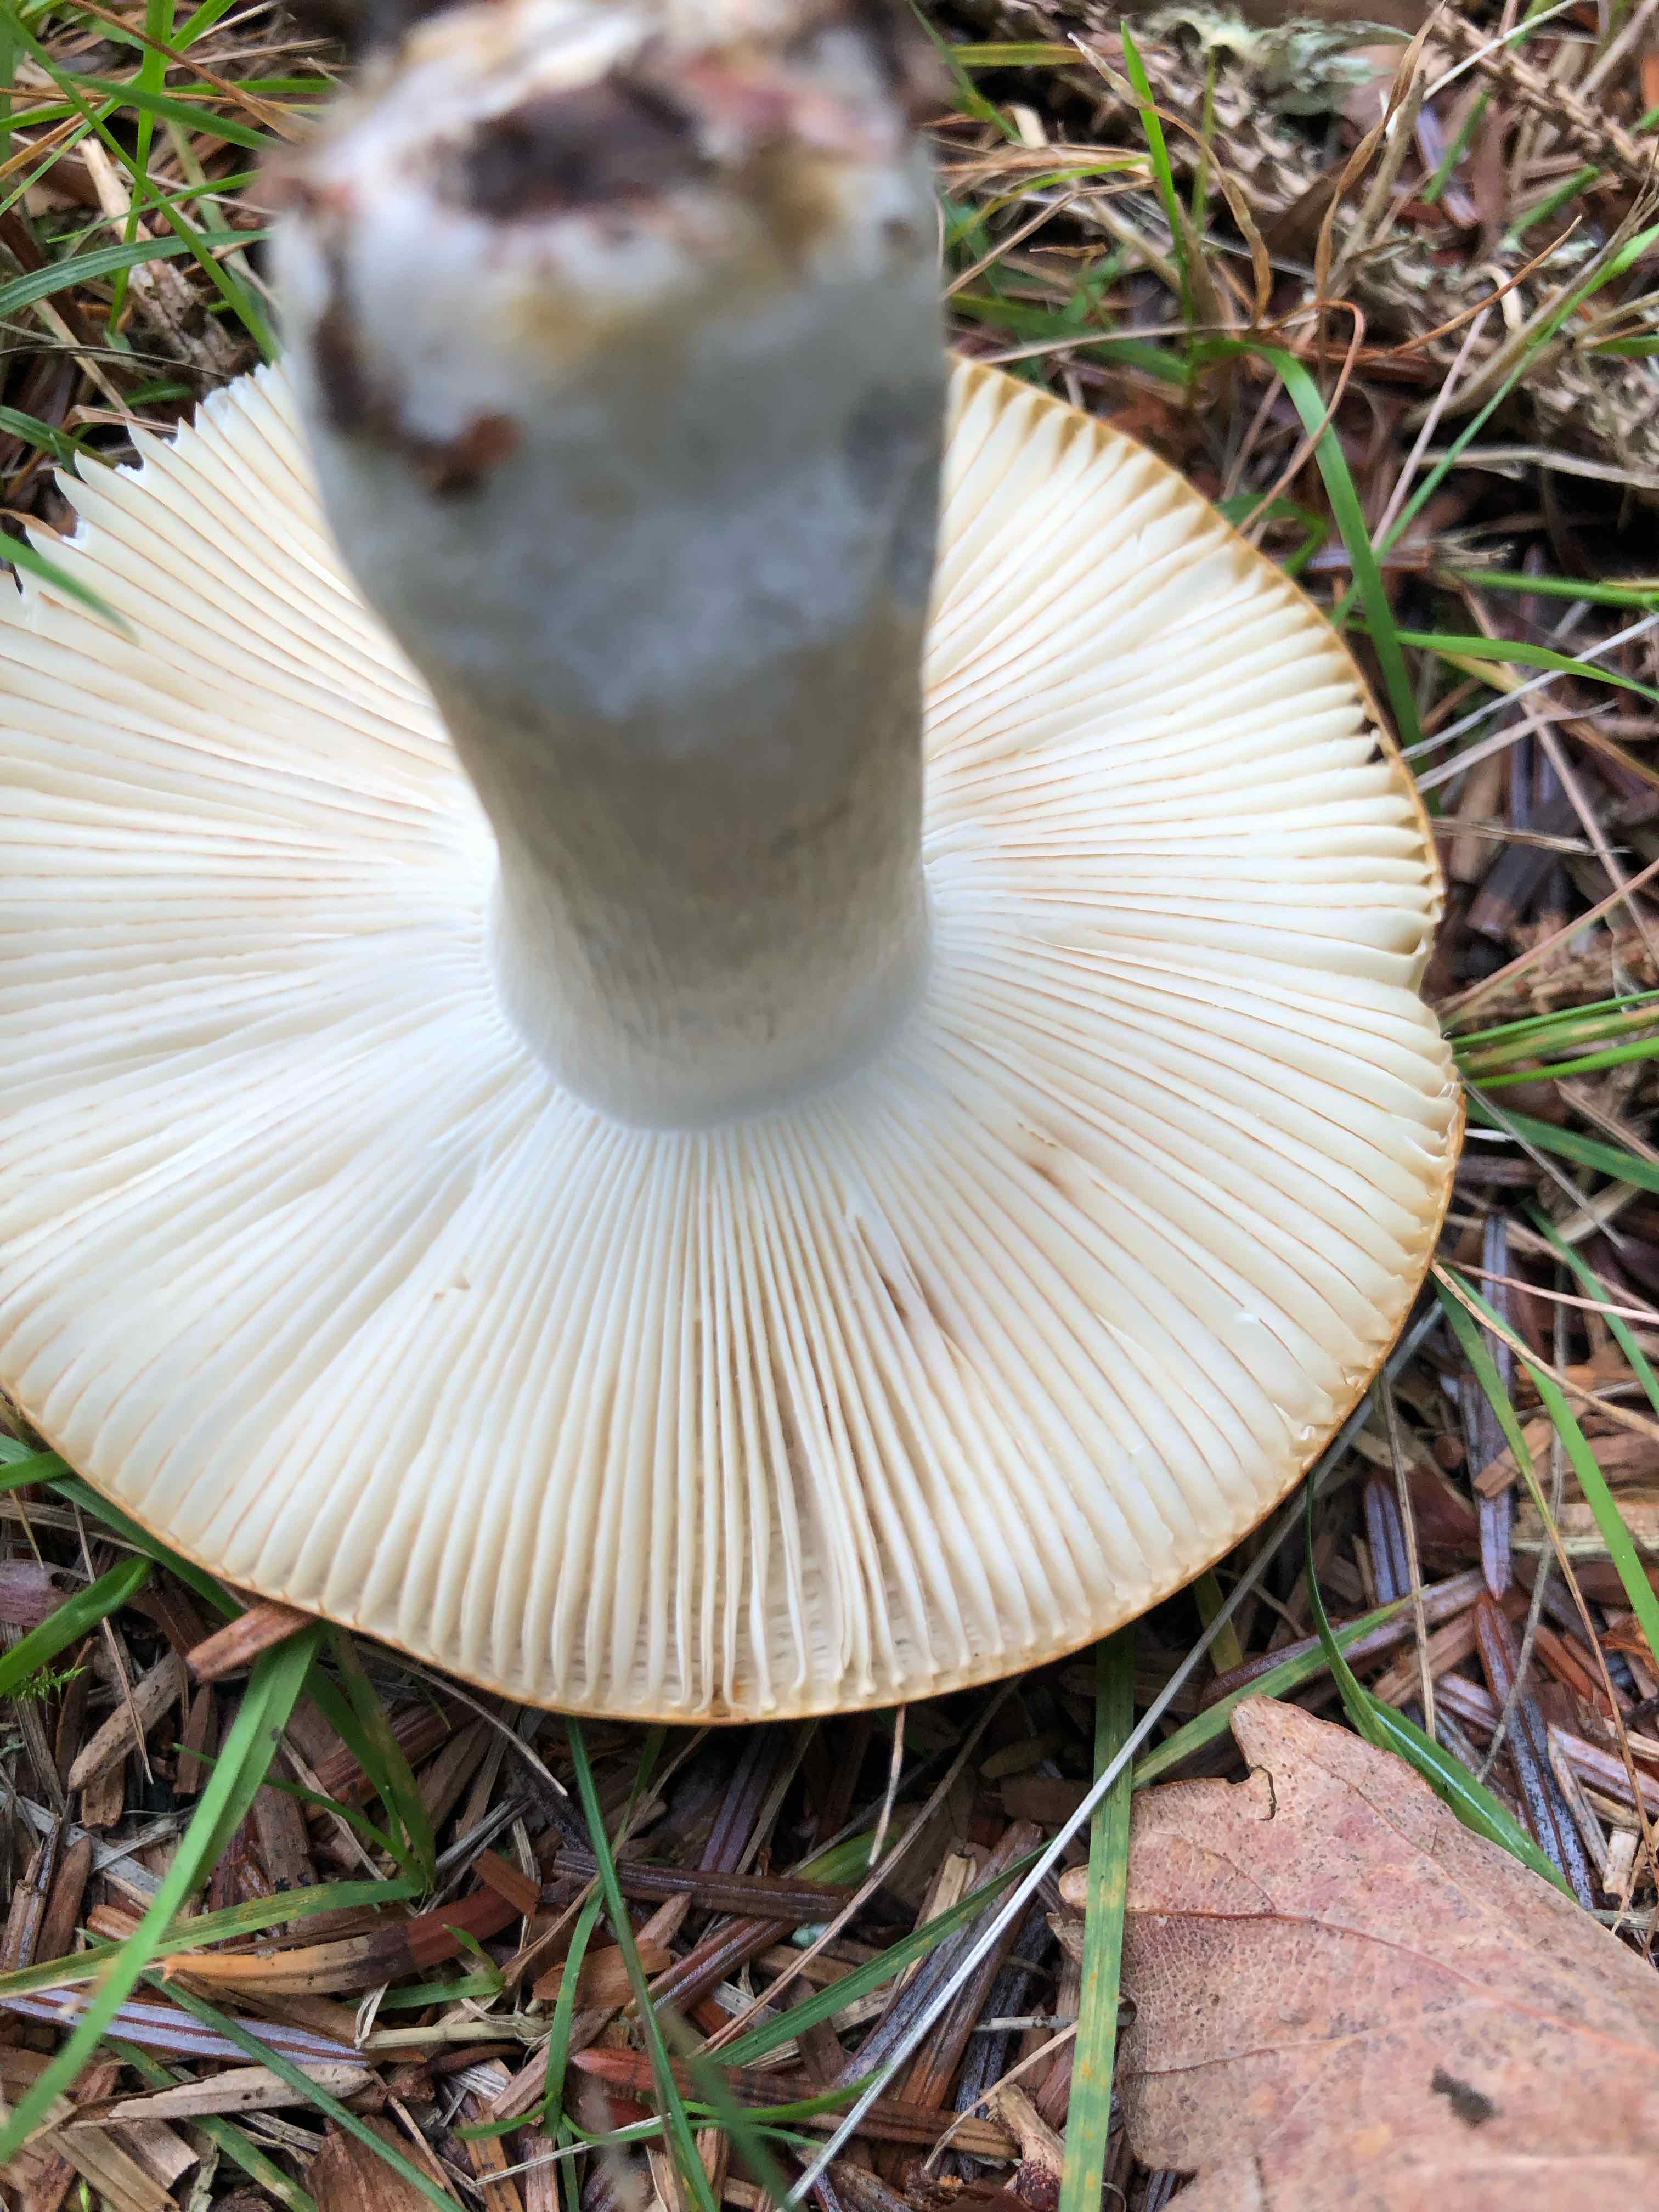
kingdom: Fungi
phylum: Basidiomycota
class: Agaricomycetes
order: Russulales
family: Russulaceae
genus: Russula
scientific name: Russula ochroleuca
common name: okkergul skørhat
